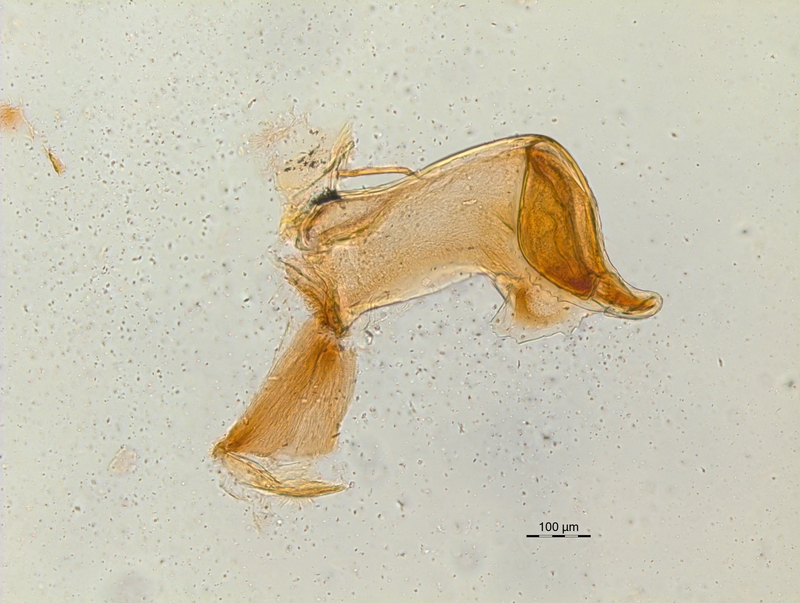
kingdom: Animalia
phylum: Arthropoda
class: Diplopoda
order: Chordeumatida
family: Craspedosomatidae
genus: Craspedosoma
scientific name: Craspedosoma alemannicum
